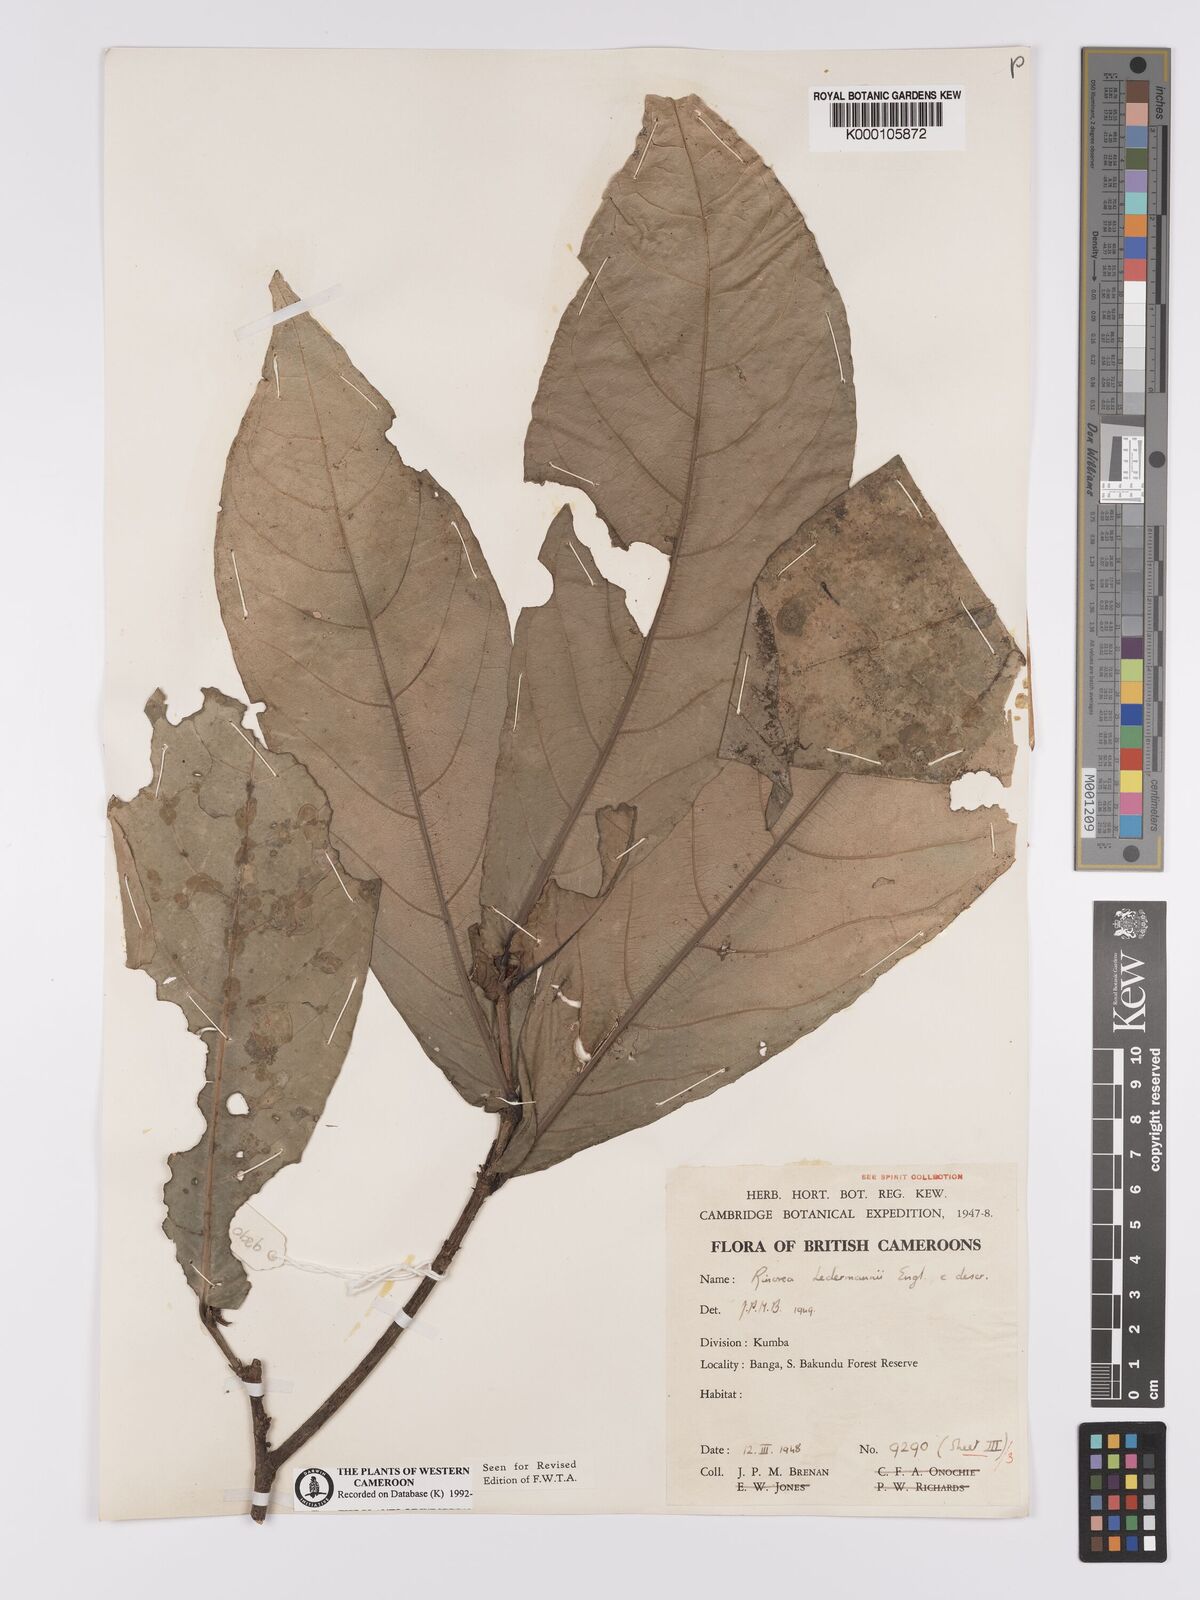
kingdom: Plantae
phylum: Tracheophyta
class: Magnoliopsida
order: Malpighiales
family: Violaceae
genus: Rinorea
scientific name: Rinorea ledermannii
